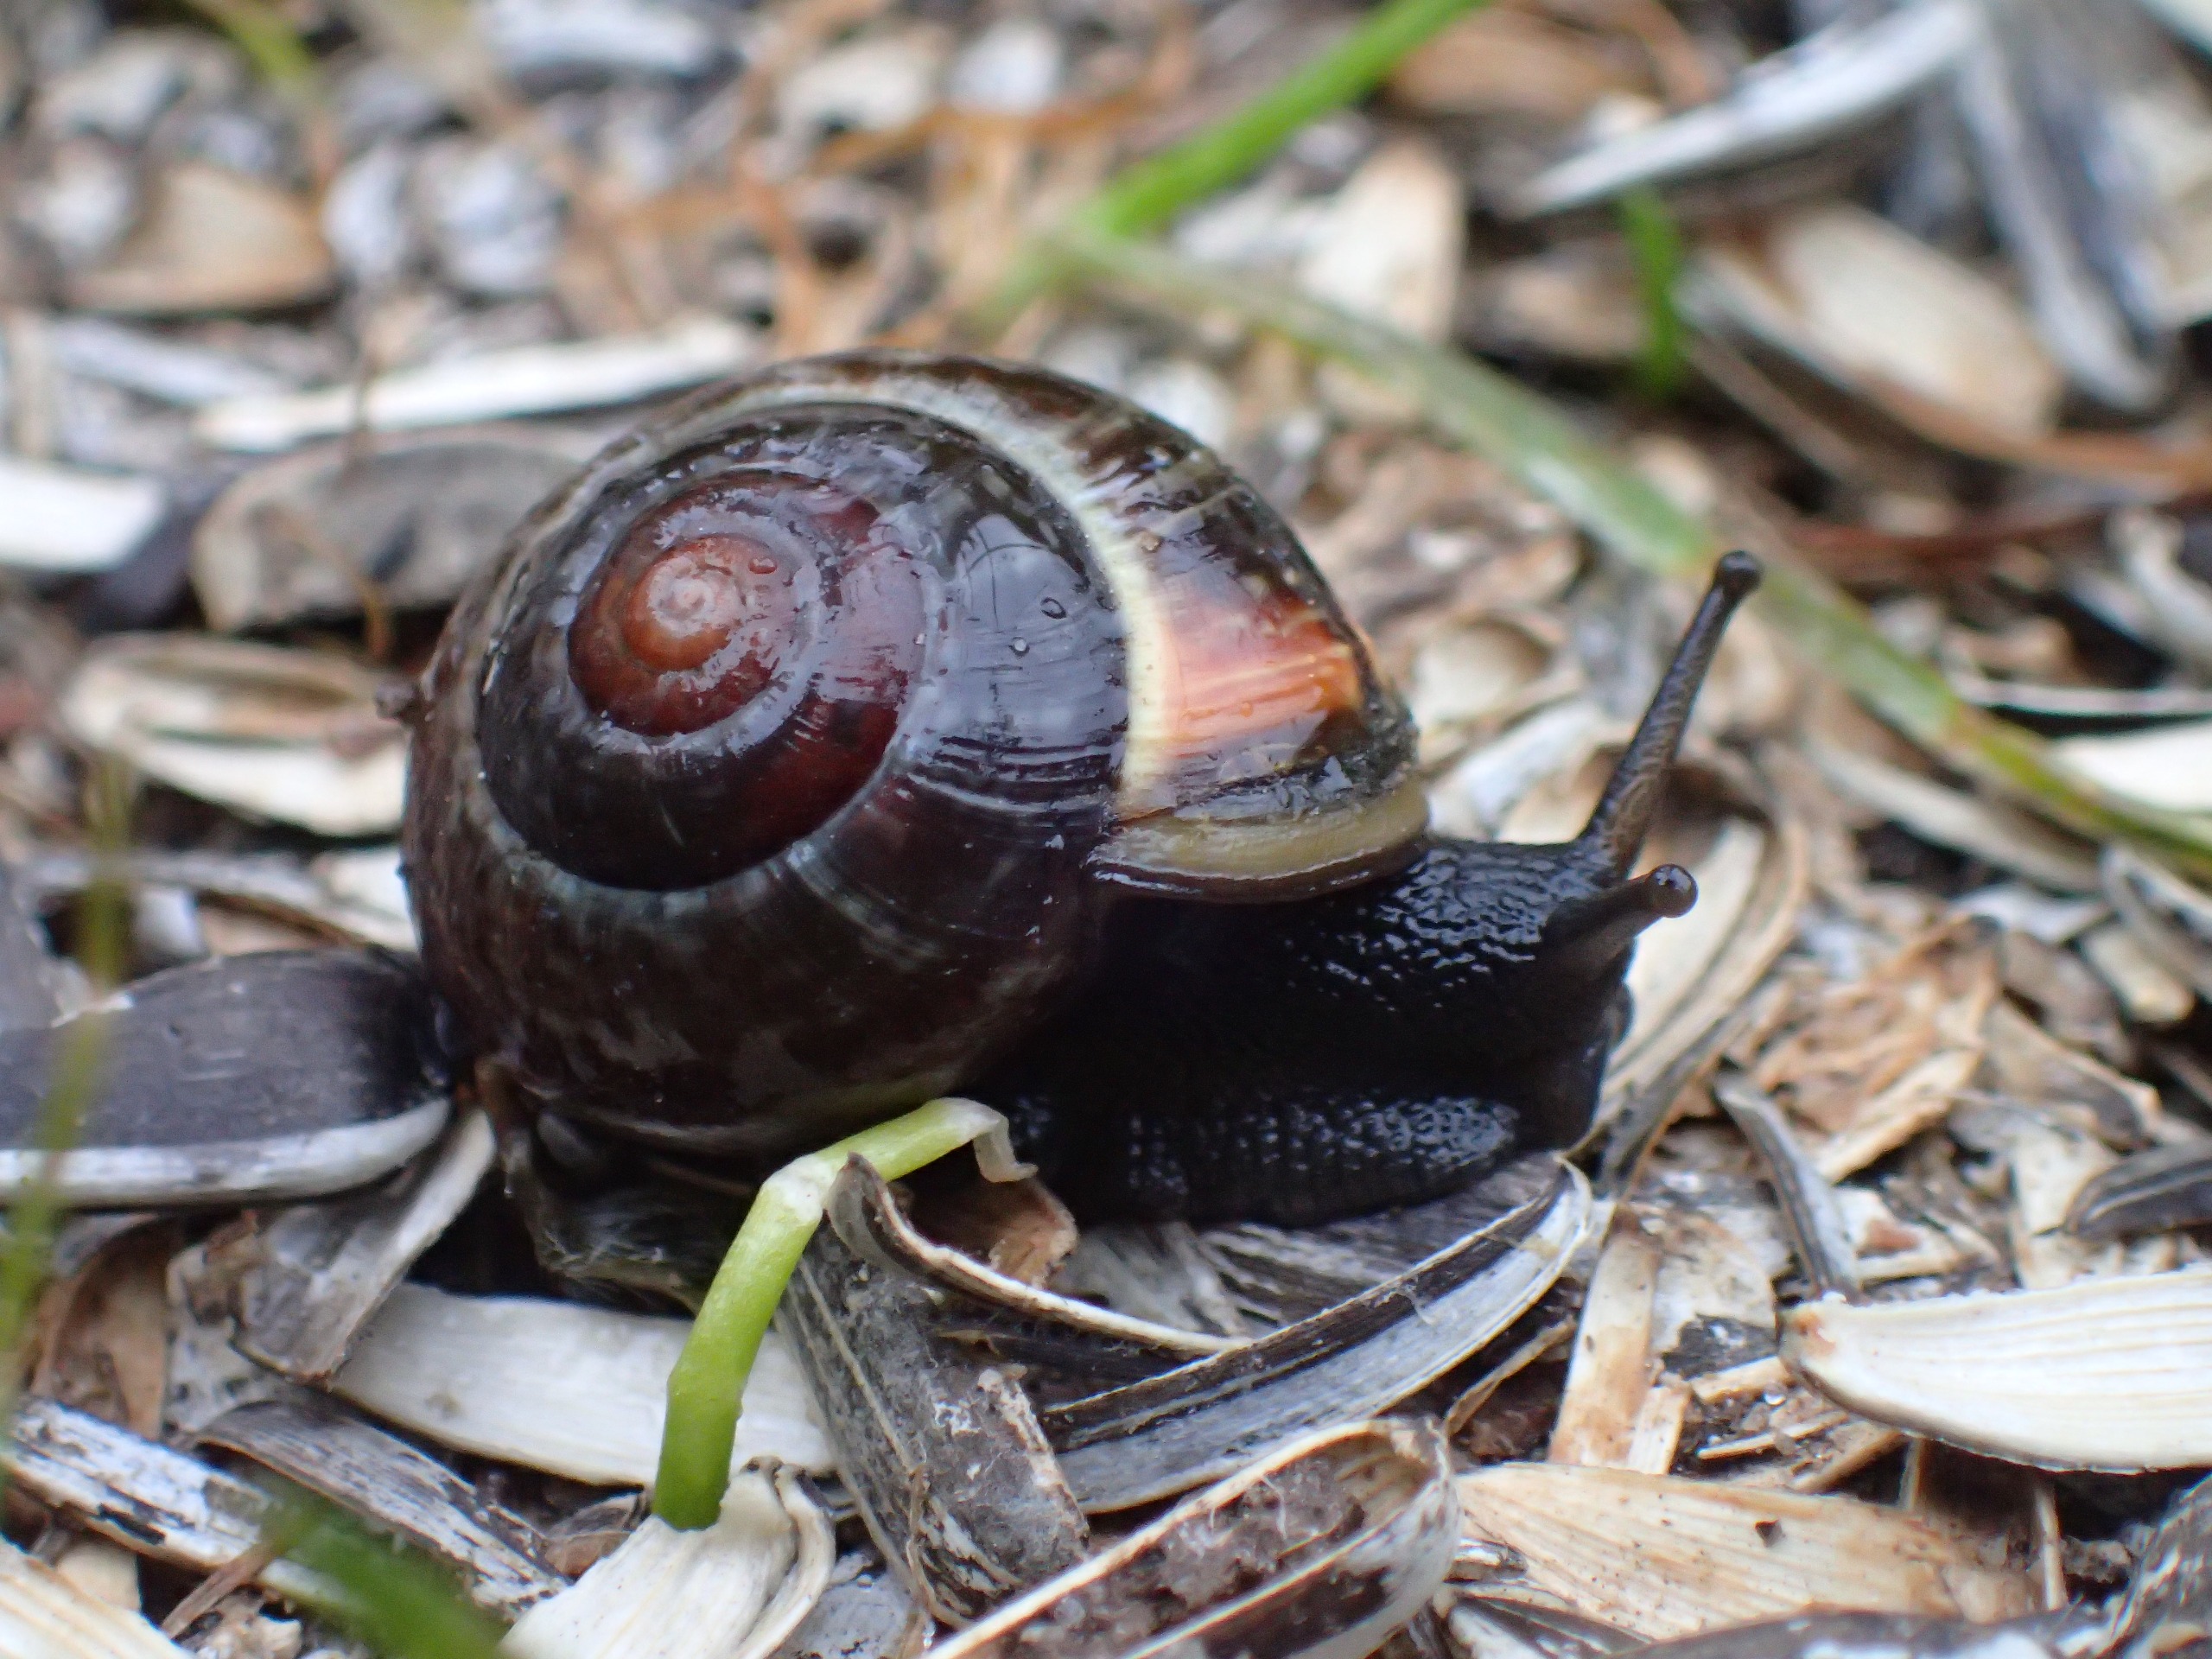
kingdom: Animalia
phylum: Mollusca
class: Gastropoda
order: Stylommatophora
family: Helicidae
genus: Arianta
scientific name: Arianta arbustorum
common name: Kratsnegl
